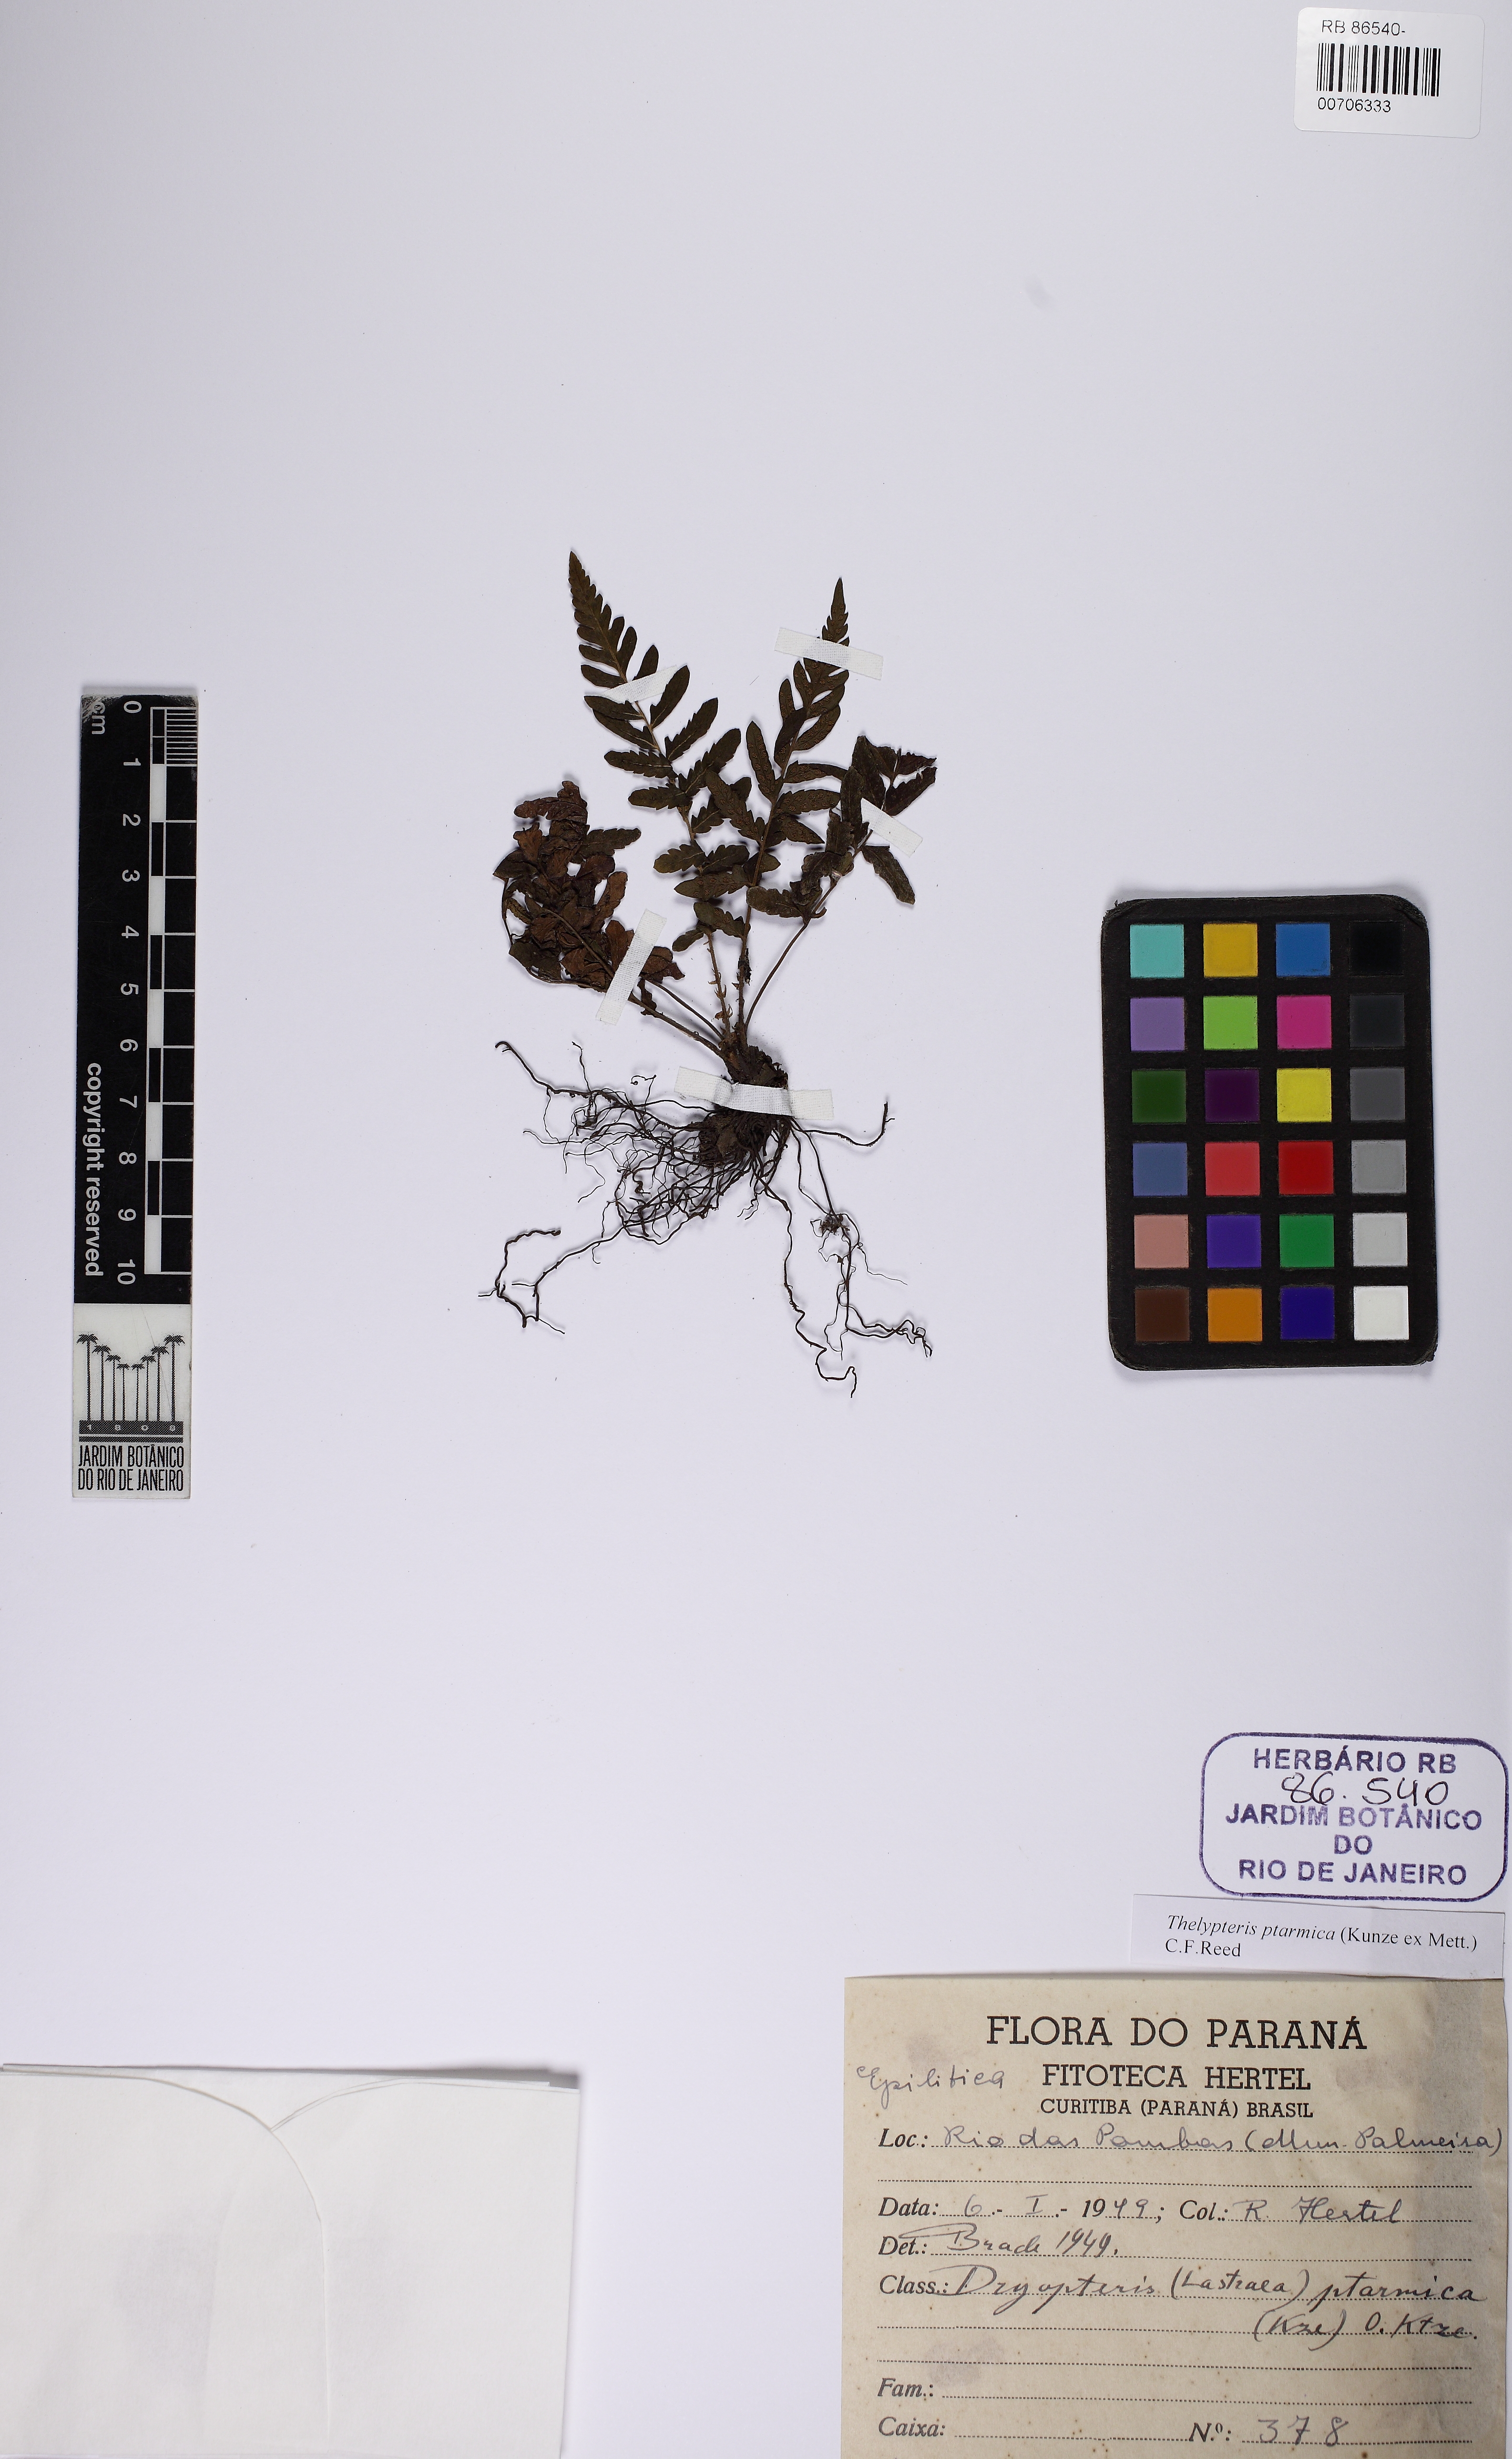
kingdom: Plantae
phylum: Tracheophyta
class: Polypodiopsida
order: Polypodiales
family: Thelypteridaceae
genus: Amauropelta
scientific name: Amauropelta ptarmica
